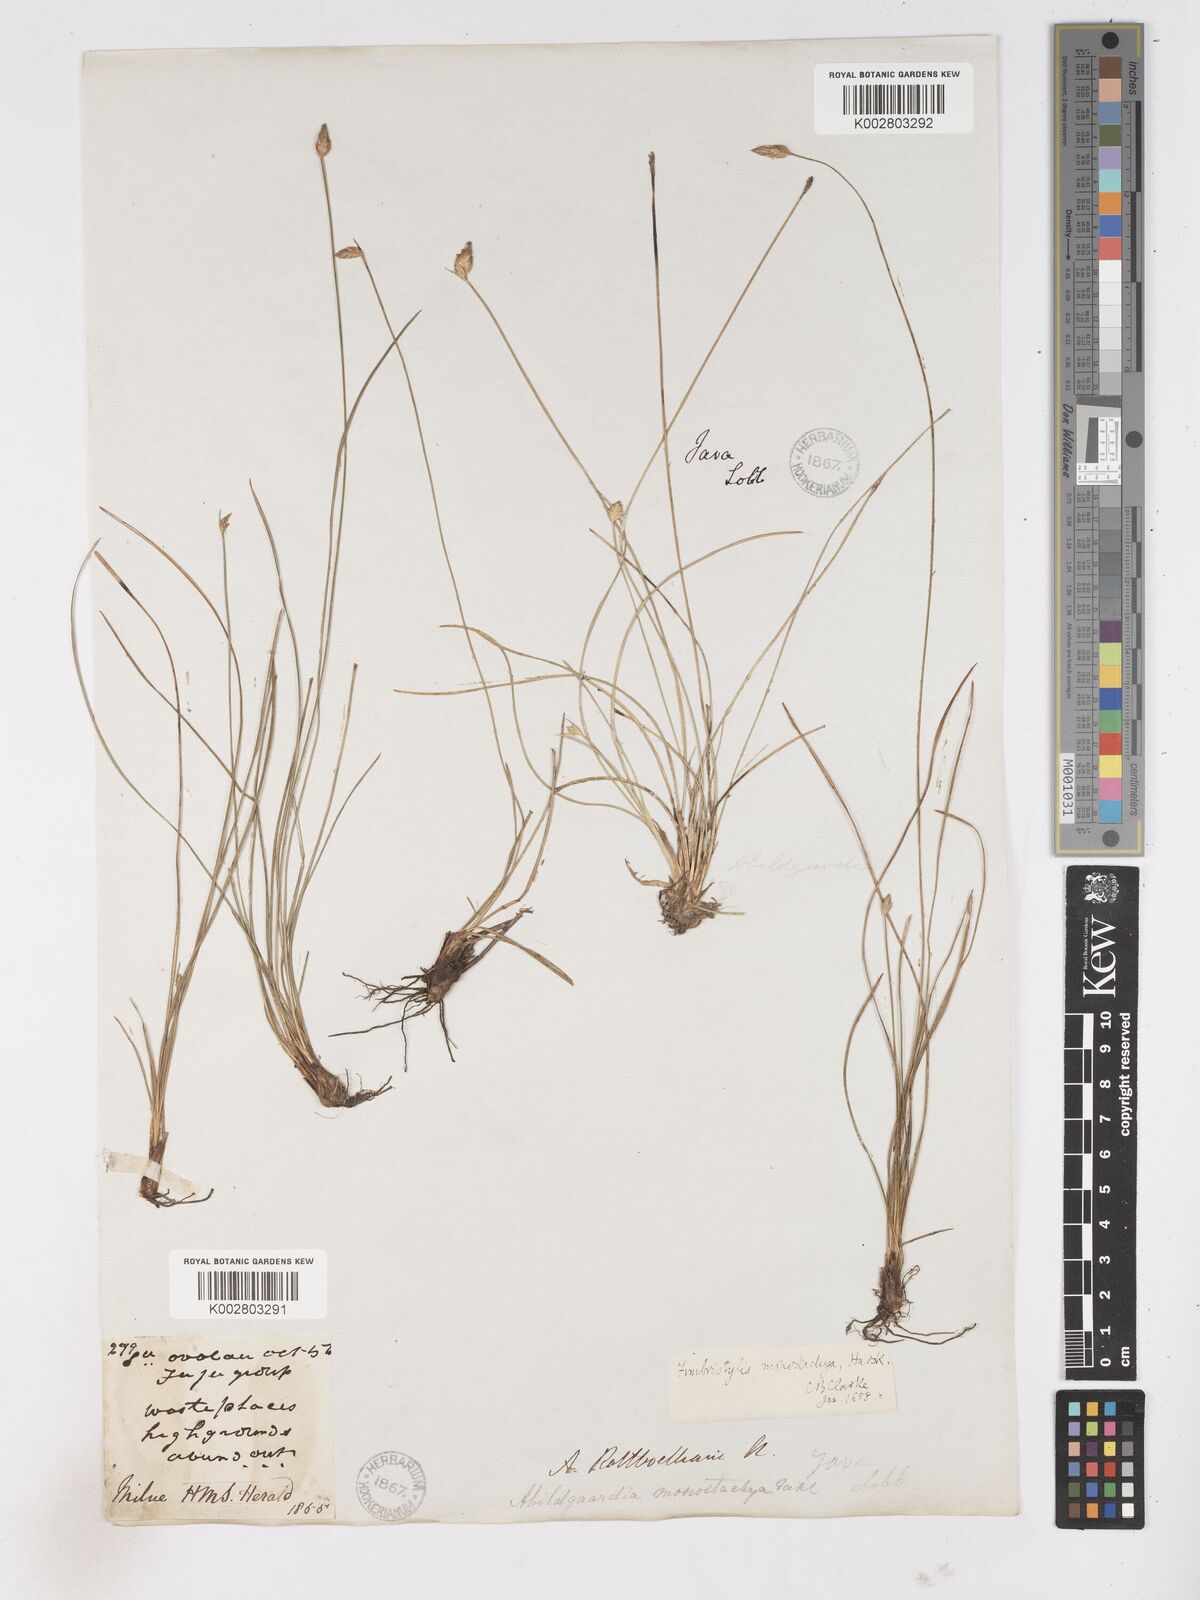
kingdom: Plantae
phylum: Tracheophyta
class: Liliopsida
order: Poales
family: Cyperaceae
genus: Abildgaardia
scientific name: Abildgaardia ovata
